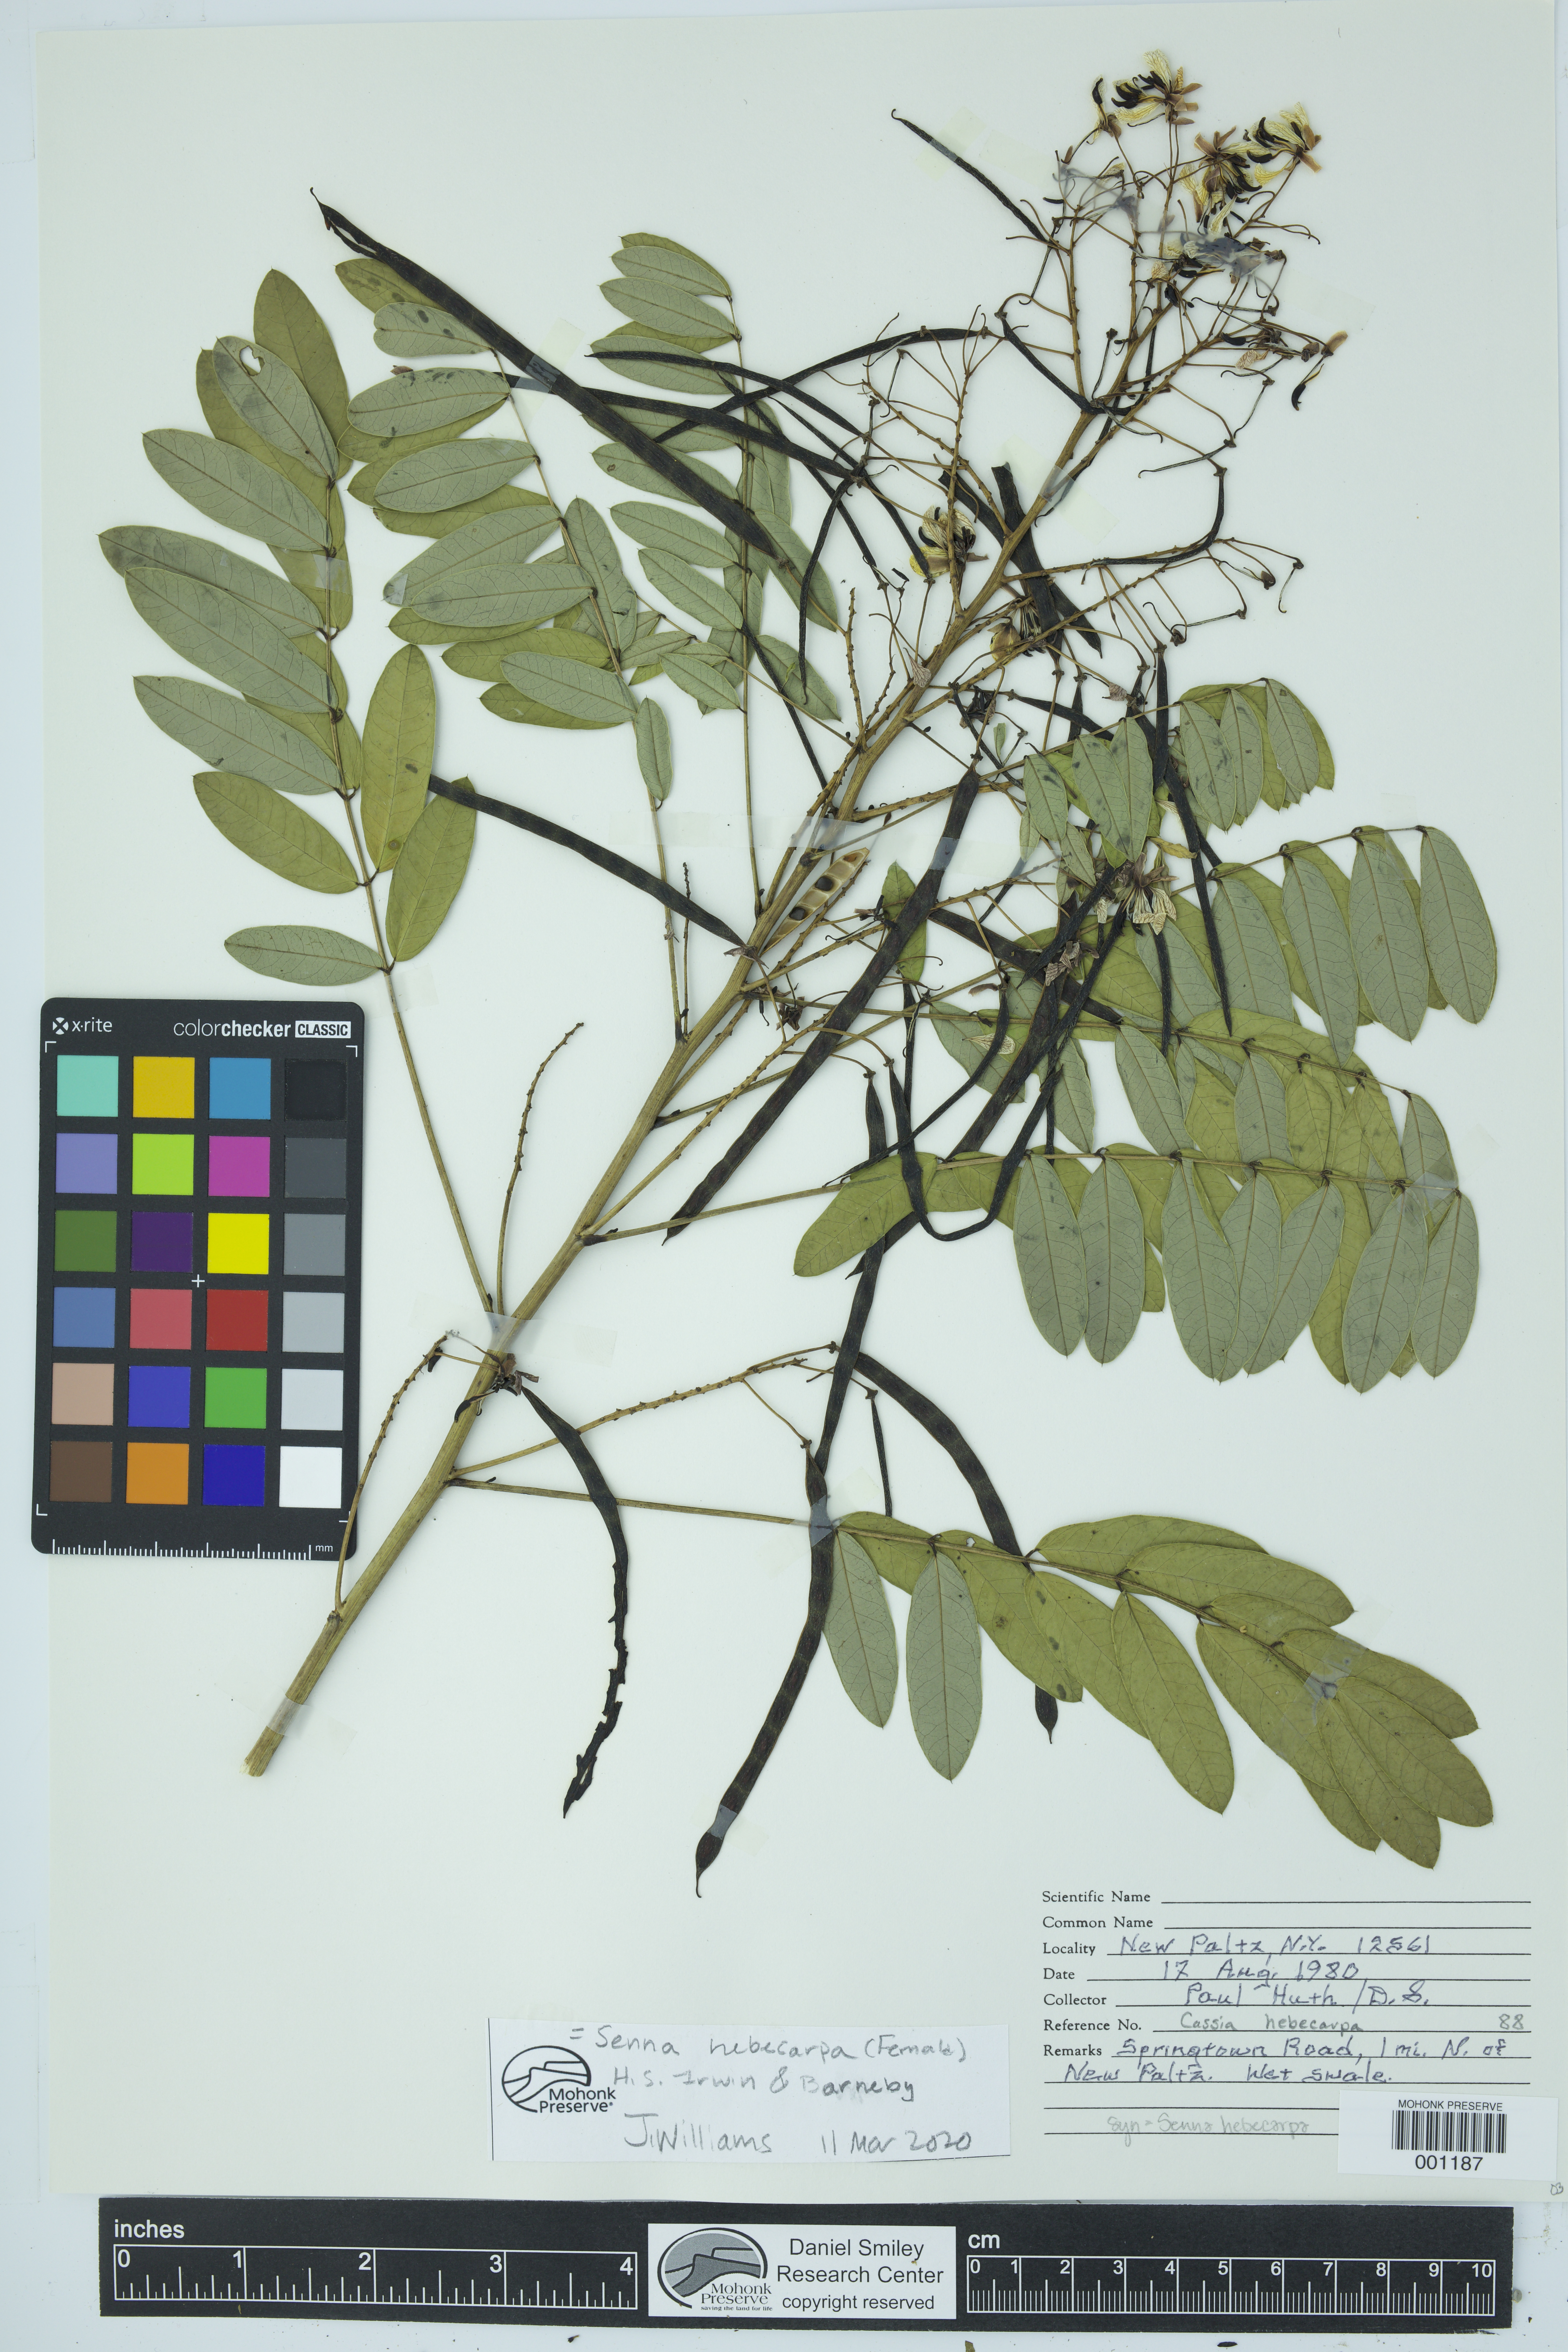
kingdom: Plantae
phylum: Tracheophyta
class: Magnoliopsida
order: Fabales
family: Fabaceae
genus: Senna
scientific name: Senna hebecarpa
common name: Wild senna
